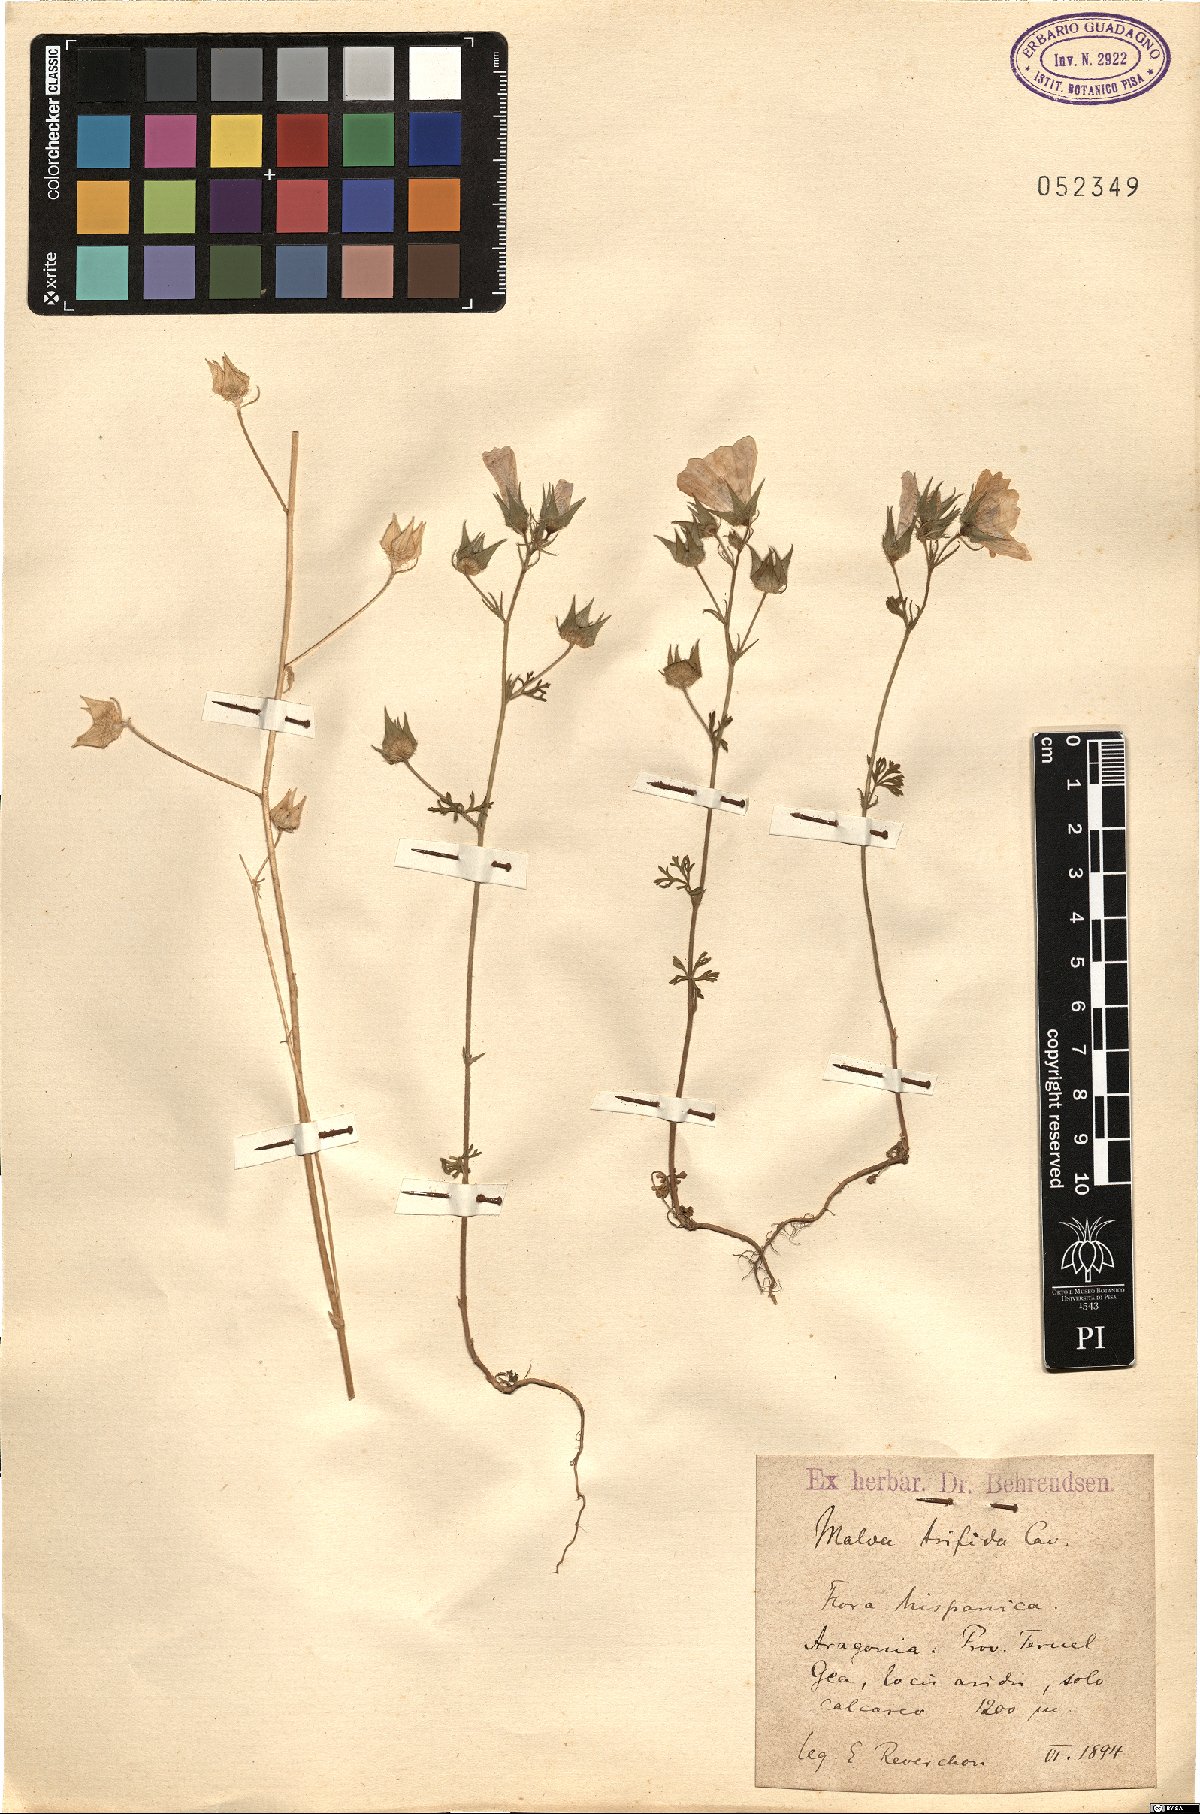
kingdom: Plantae
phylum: Tracheophyta
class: Magnoliopsida
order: Malvales
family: Malvaceae
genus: Malva
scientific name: Malva trifida
